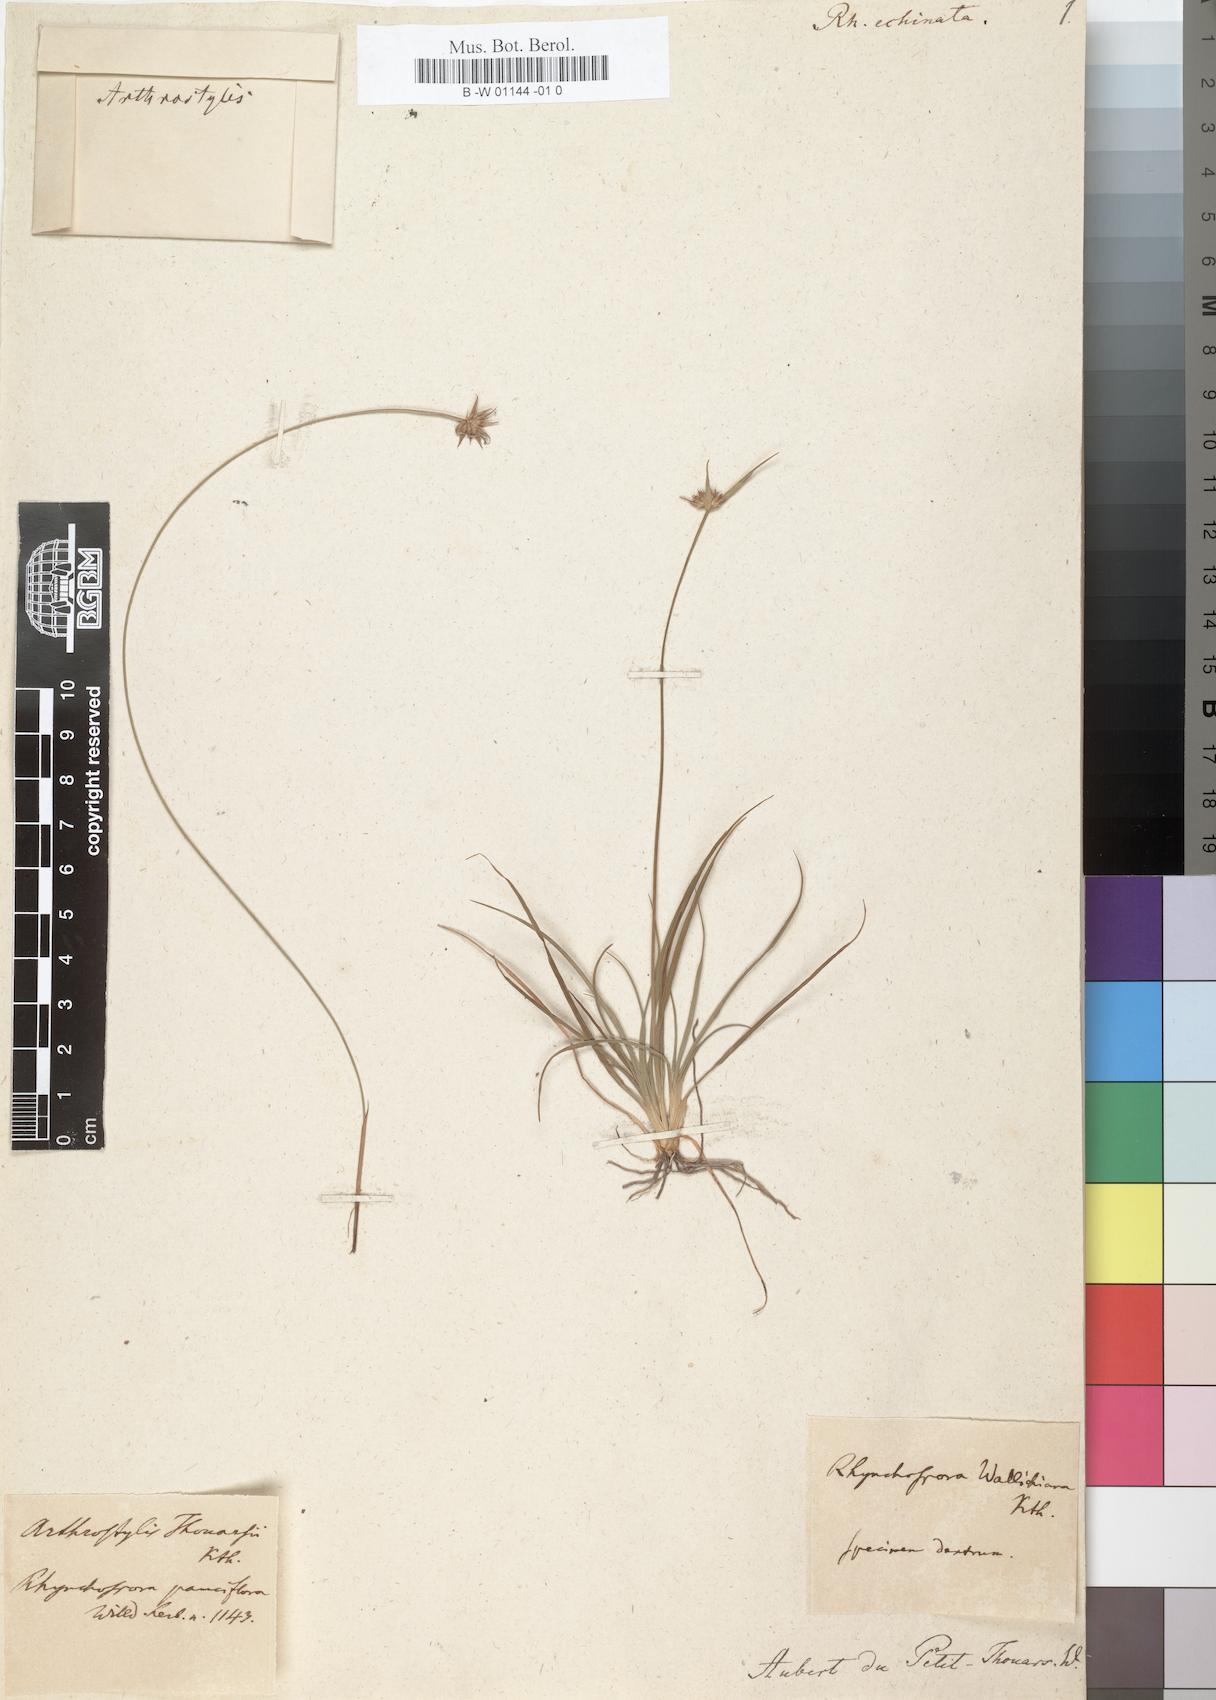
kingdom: Plantae
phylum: Tracheophyta
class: Liliopsida
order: Poales
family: Cyperaceae
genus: Actinoschoenus
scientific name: Actinoschoenus aphyllus
